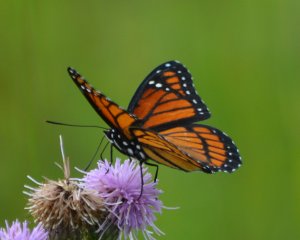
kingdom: Animalia
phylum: Arthropoda
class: Insecta
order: Lepidoptera
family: Nymphalidae
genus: Limenitis
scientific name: Limenitis archippus
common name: Viceroy
